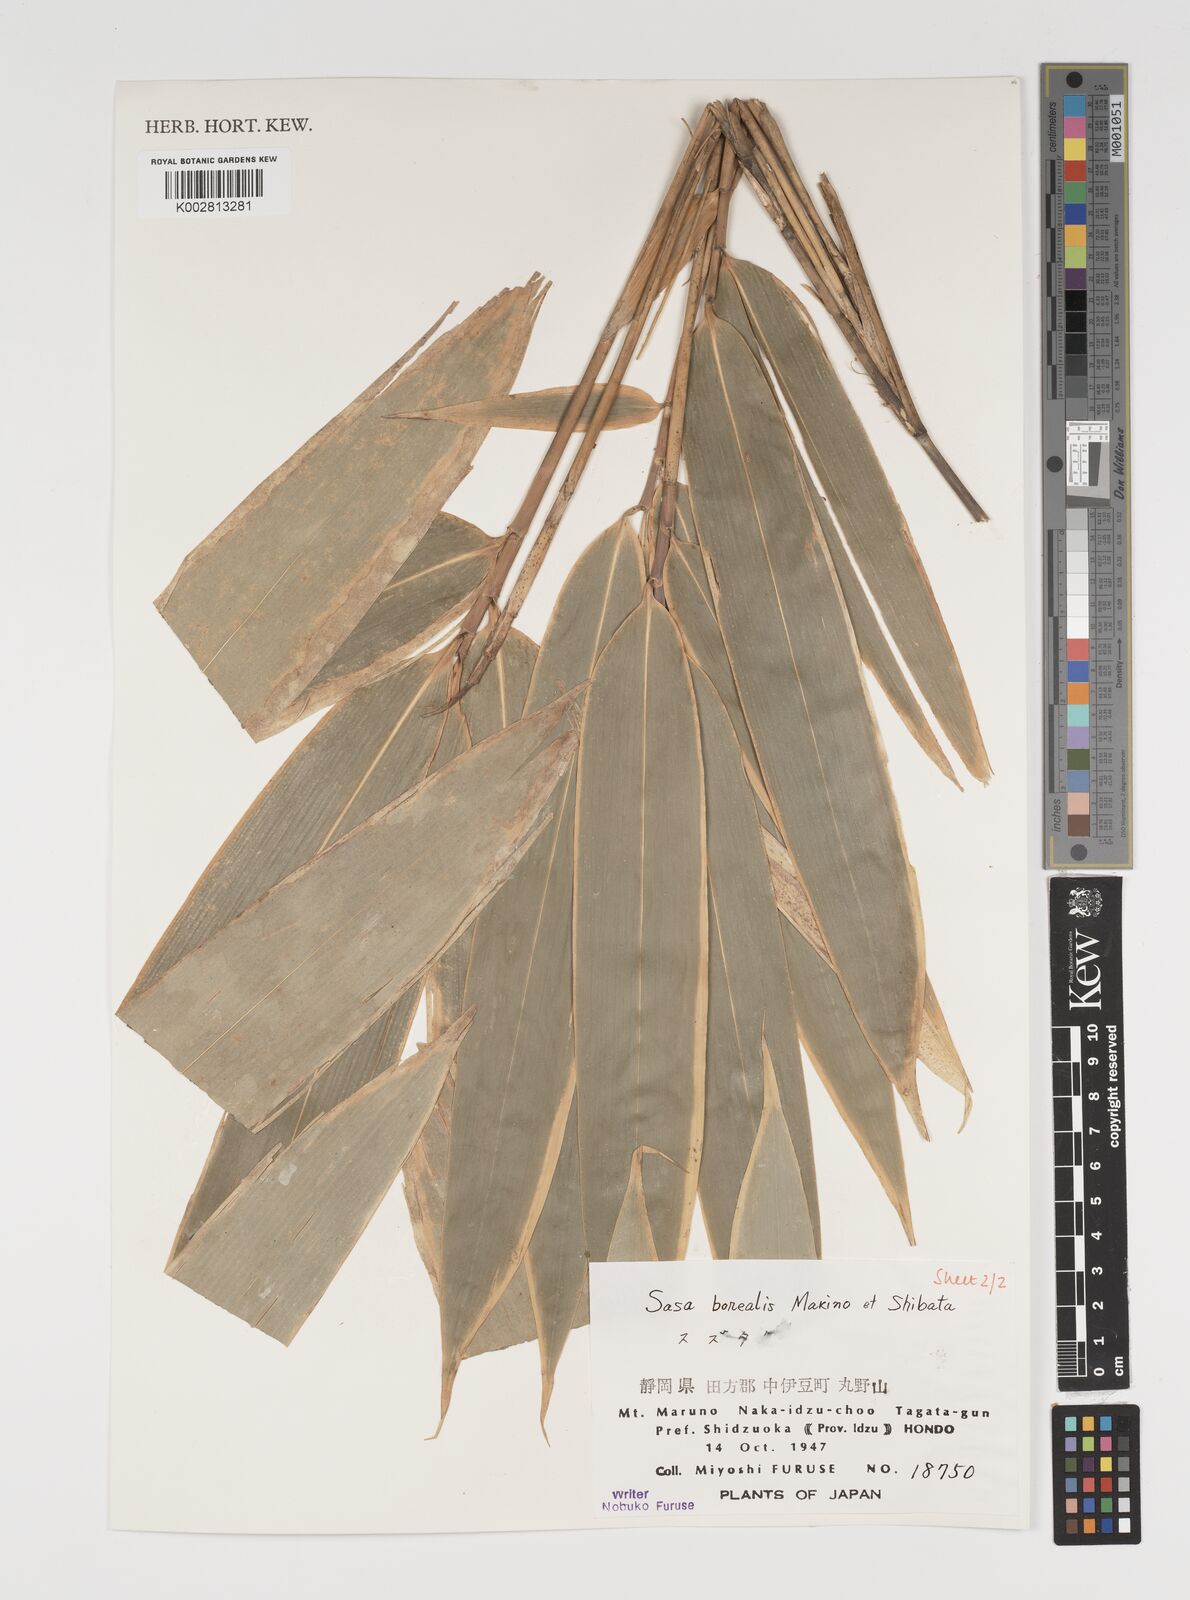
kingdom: Plantae
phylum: Tracheophyta
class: Liliopsida
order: Poales
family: Poaceae
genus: Sasamorpha
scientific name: Sasamorpha borealis
